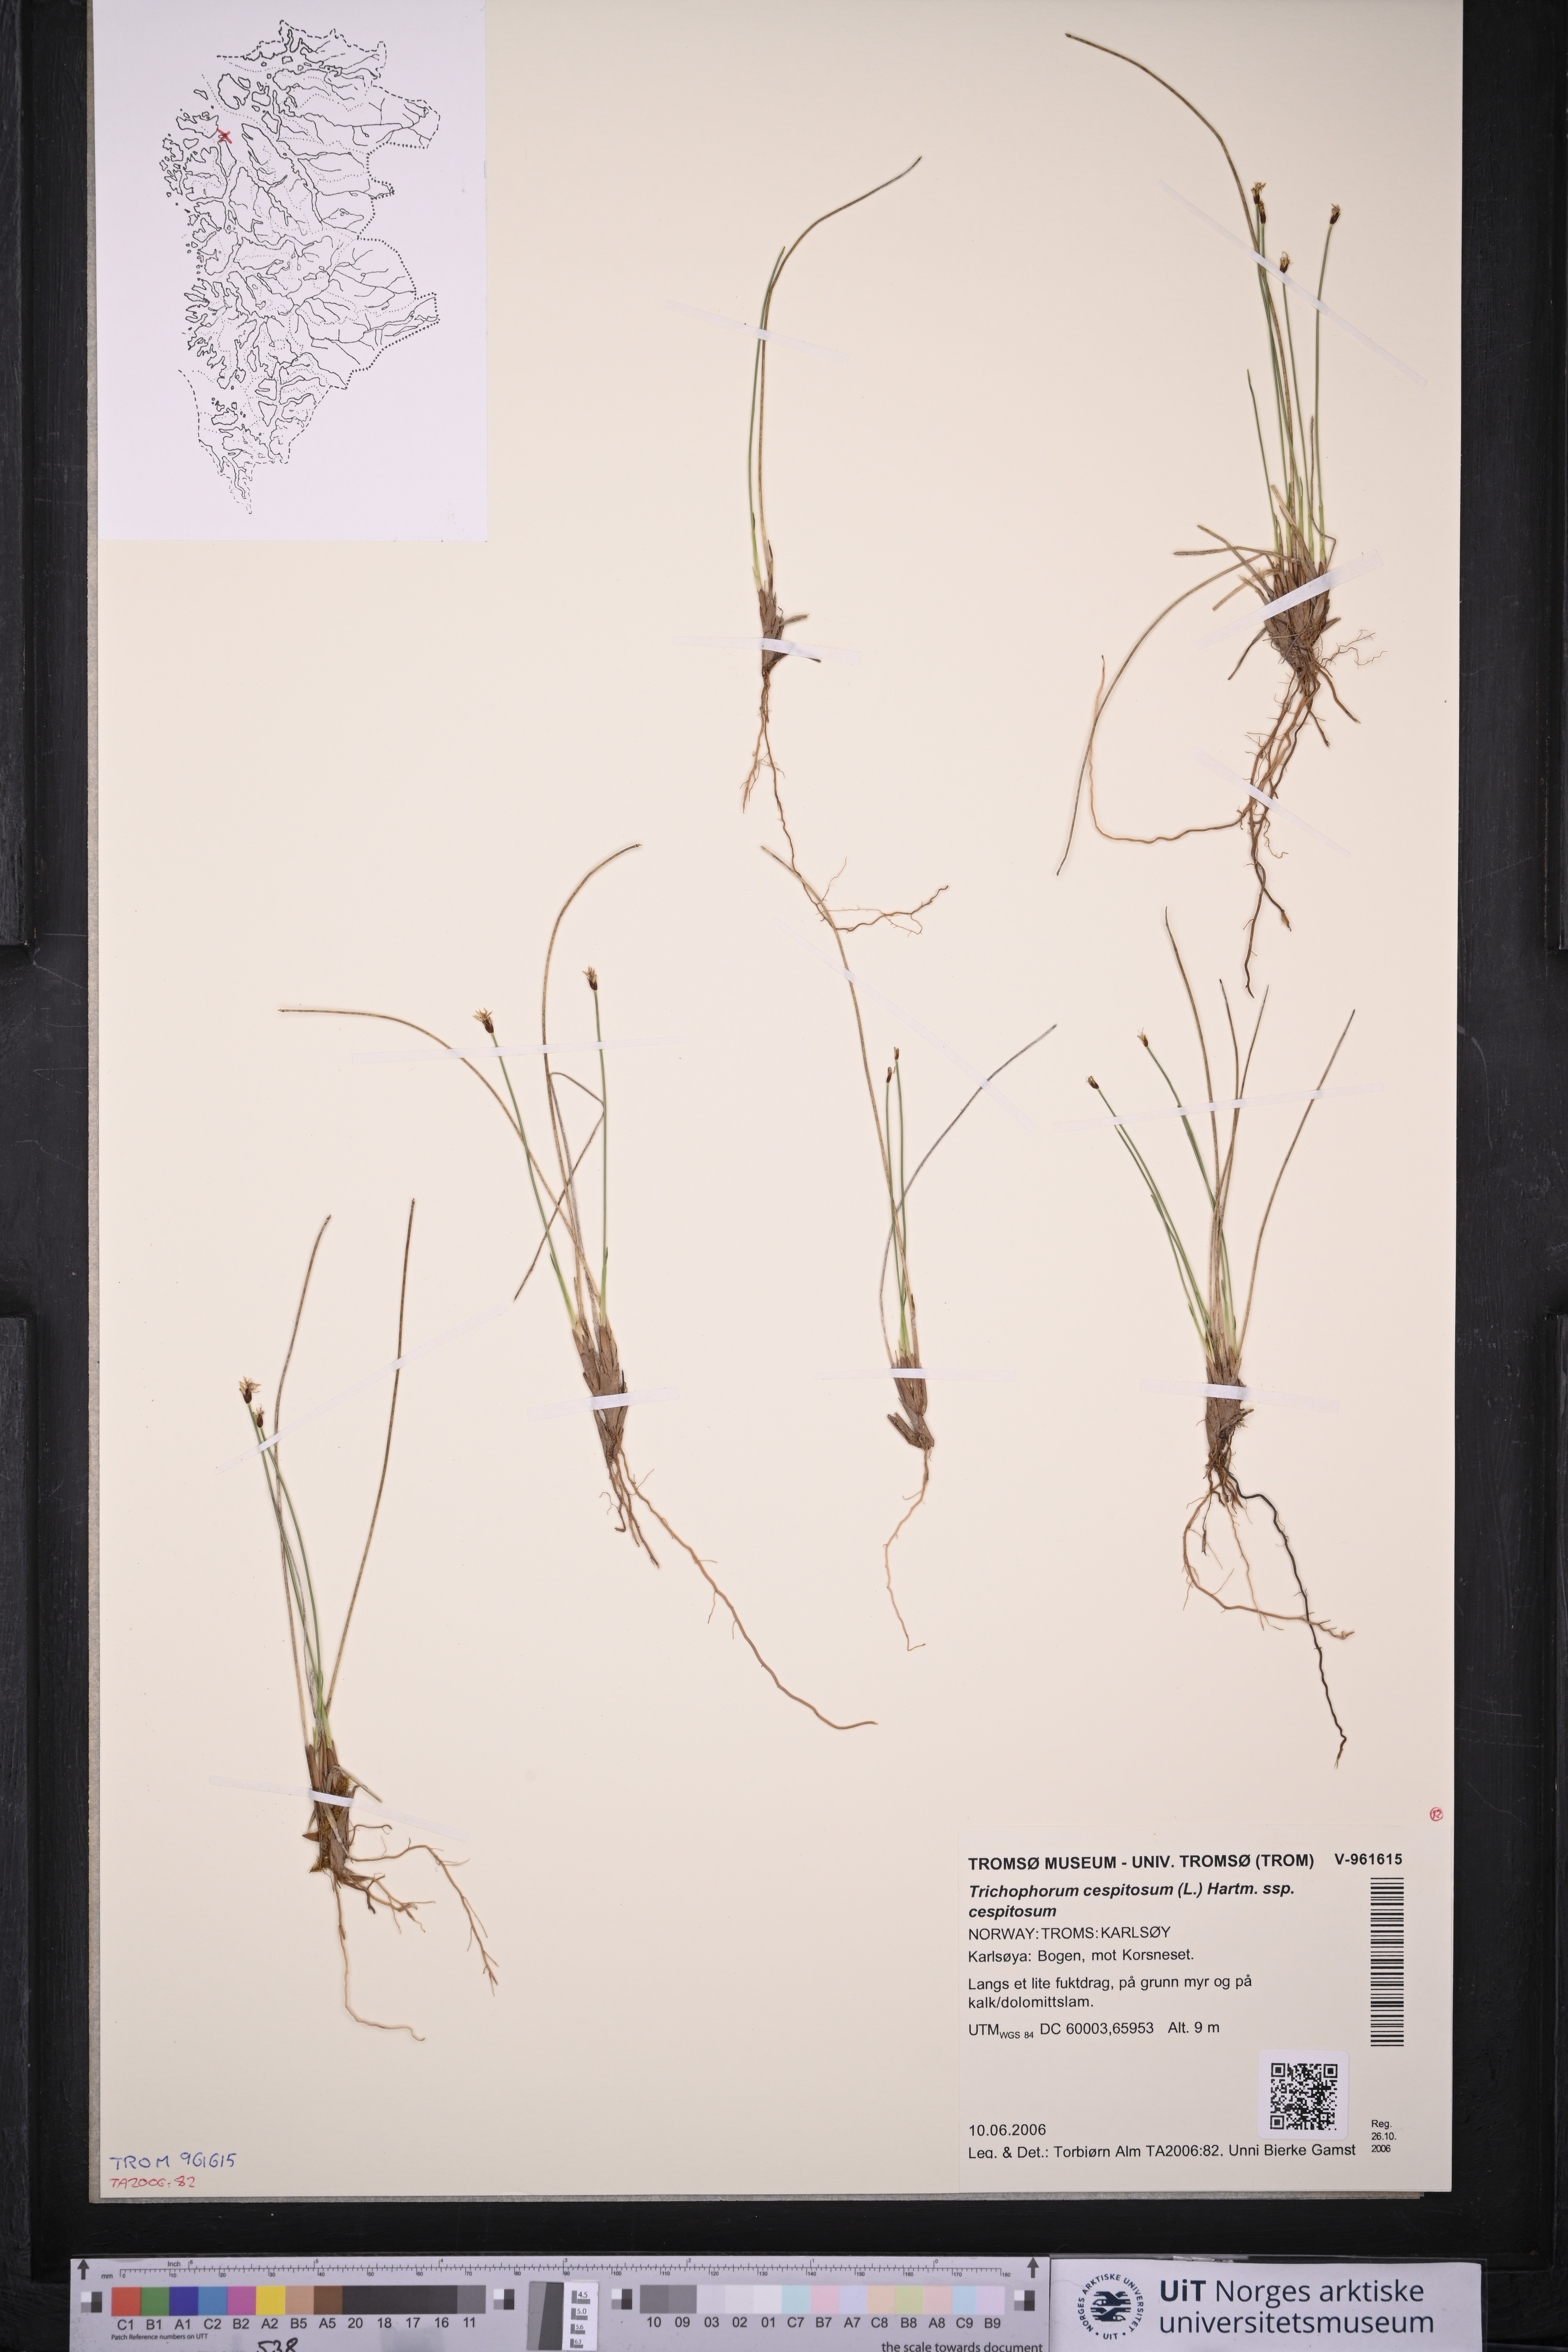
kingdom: Plantae
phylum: Tracheophyta
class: Liliopsida
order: Poales
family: Cyperaceae
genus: Trichophorum
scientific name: Trichophorum cespitosum
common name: Cespitose bulrush
